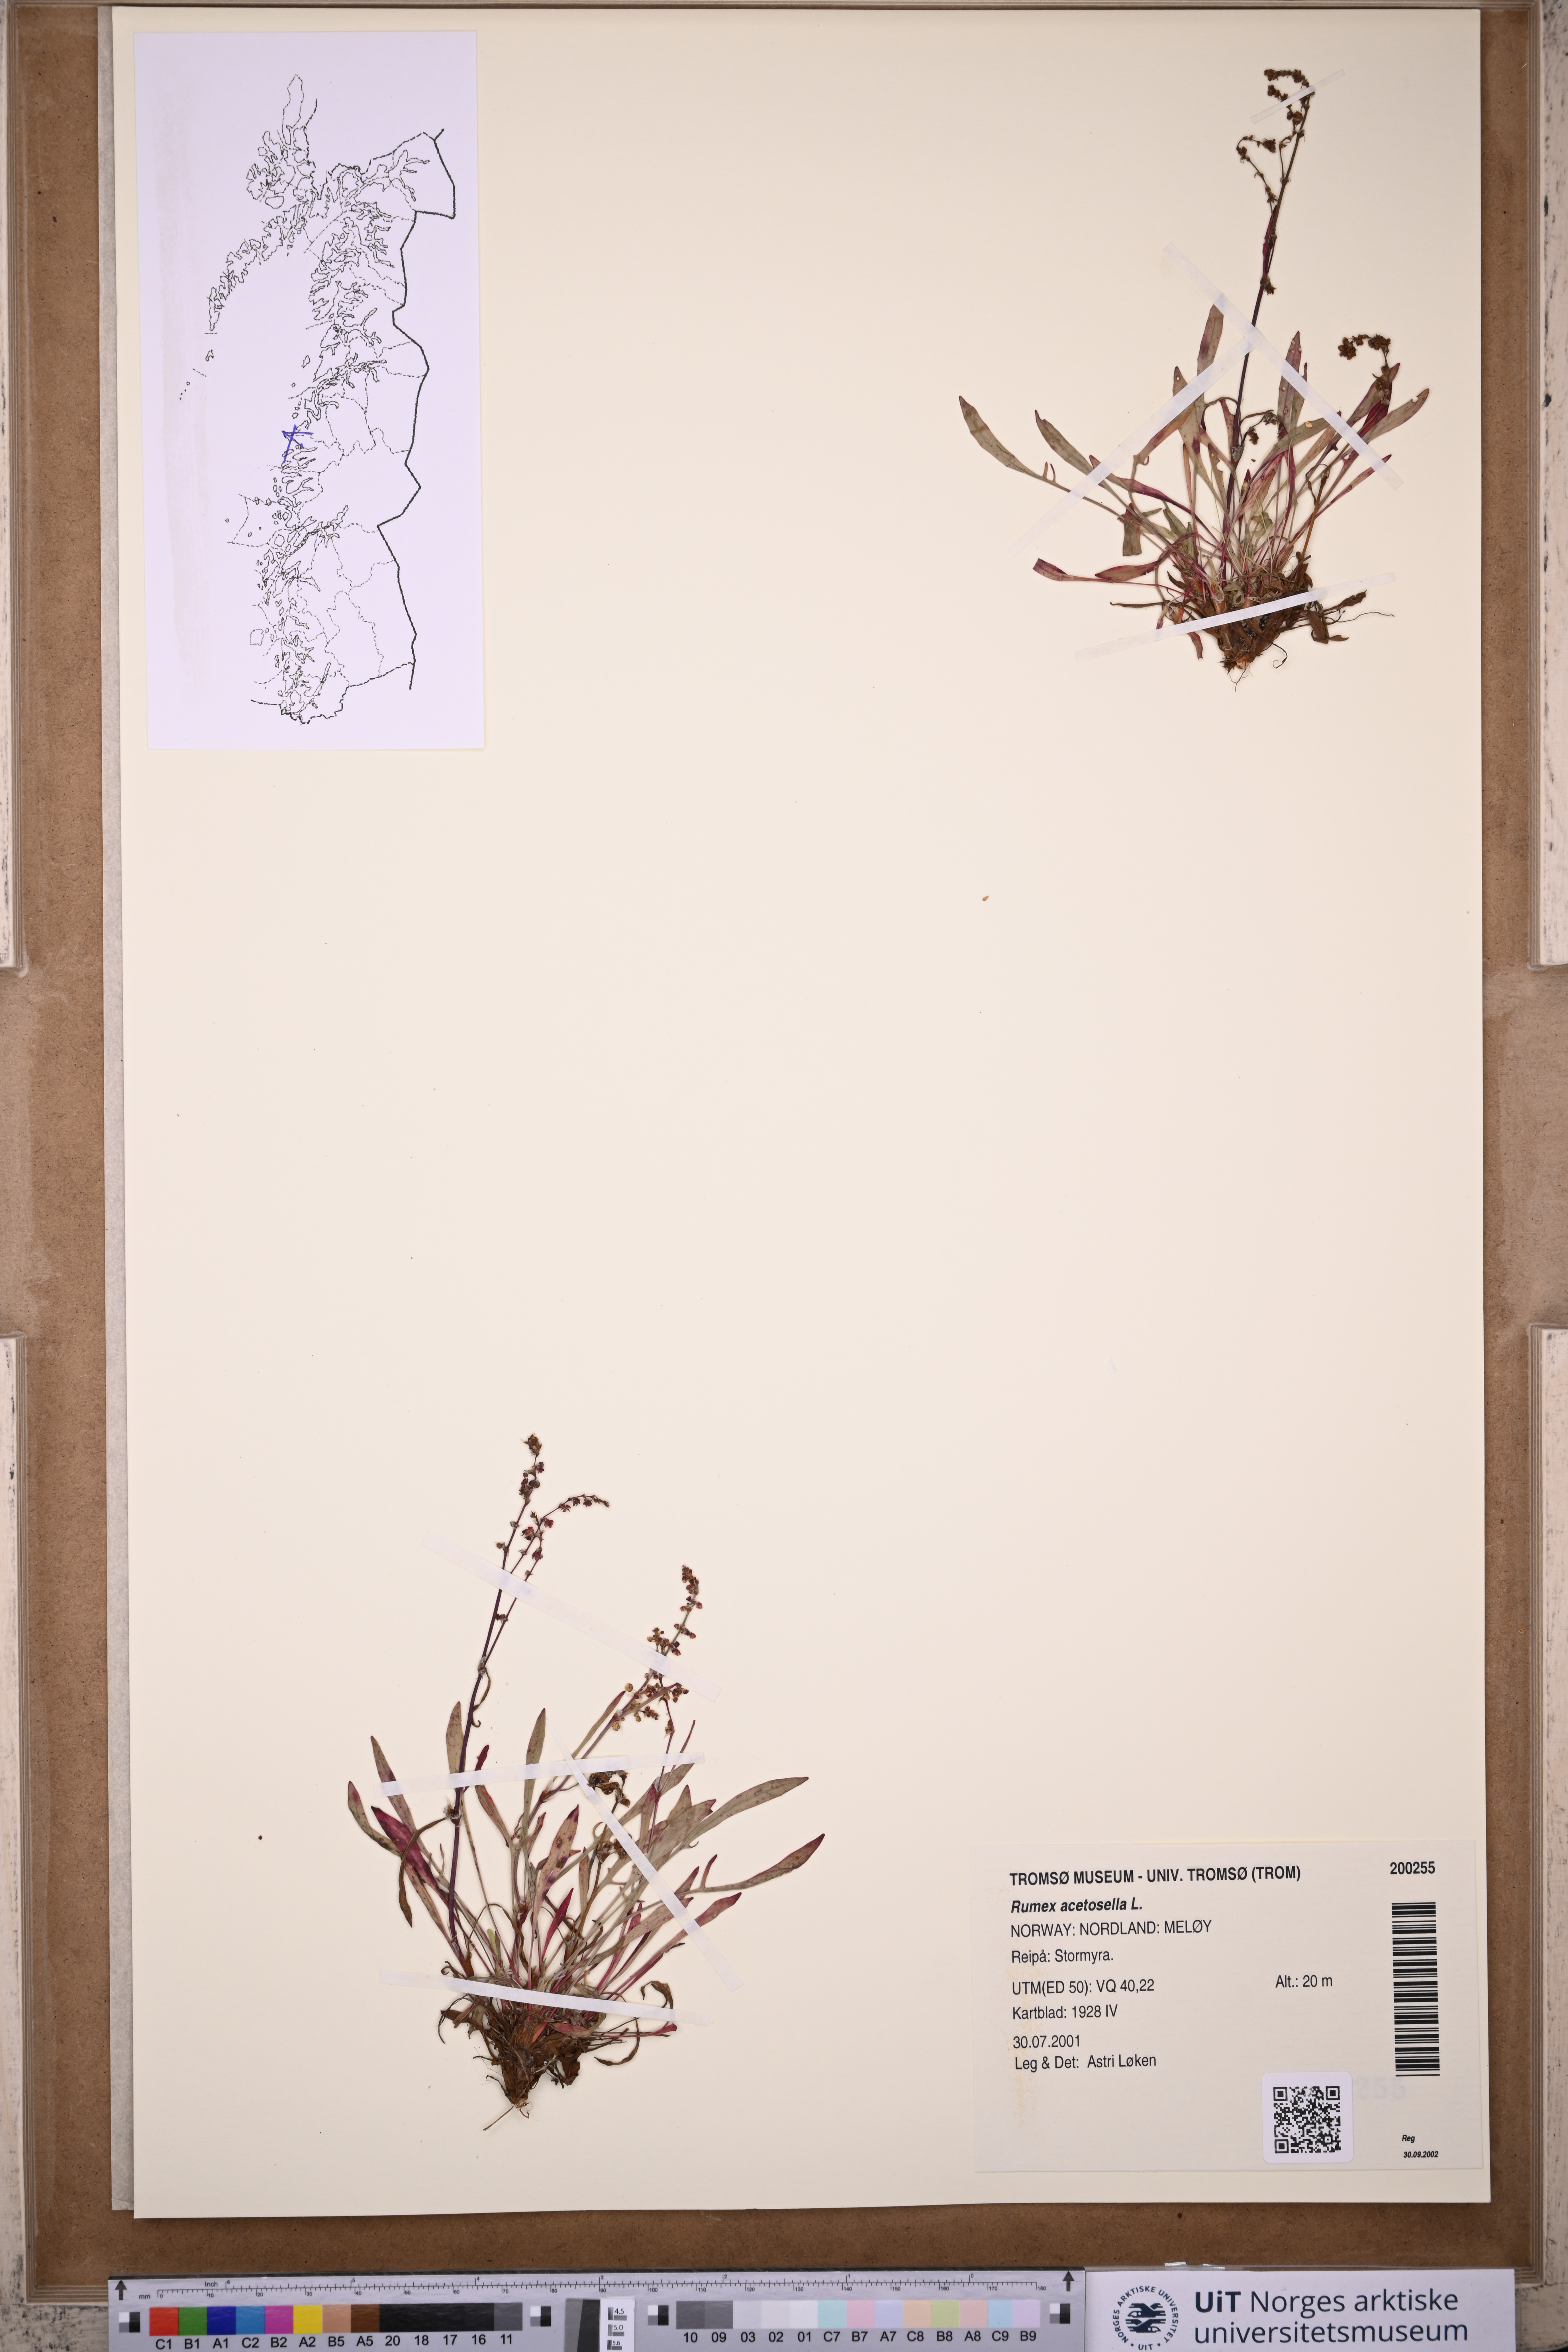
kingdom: Plantae
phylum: Tracheophyta
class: Magnoliopsida
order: Caryophyllales
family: Polygonaceae
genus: Rumex
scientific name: Rumex acetosella
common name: Common sheep sorrel
